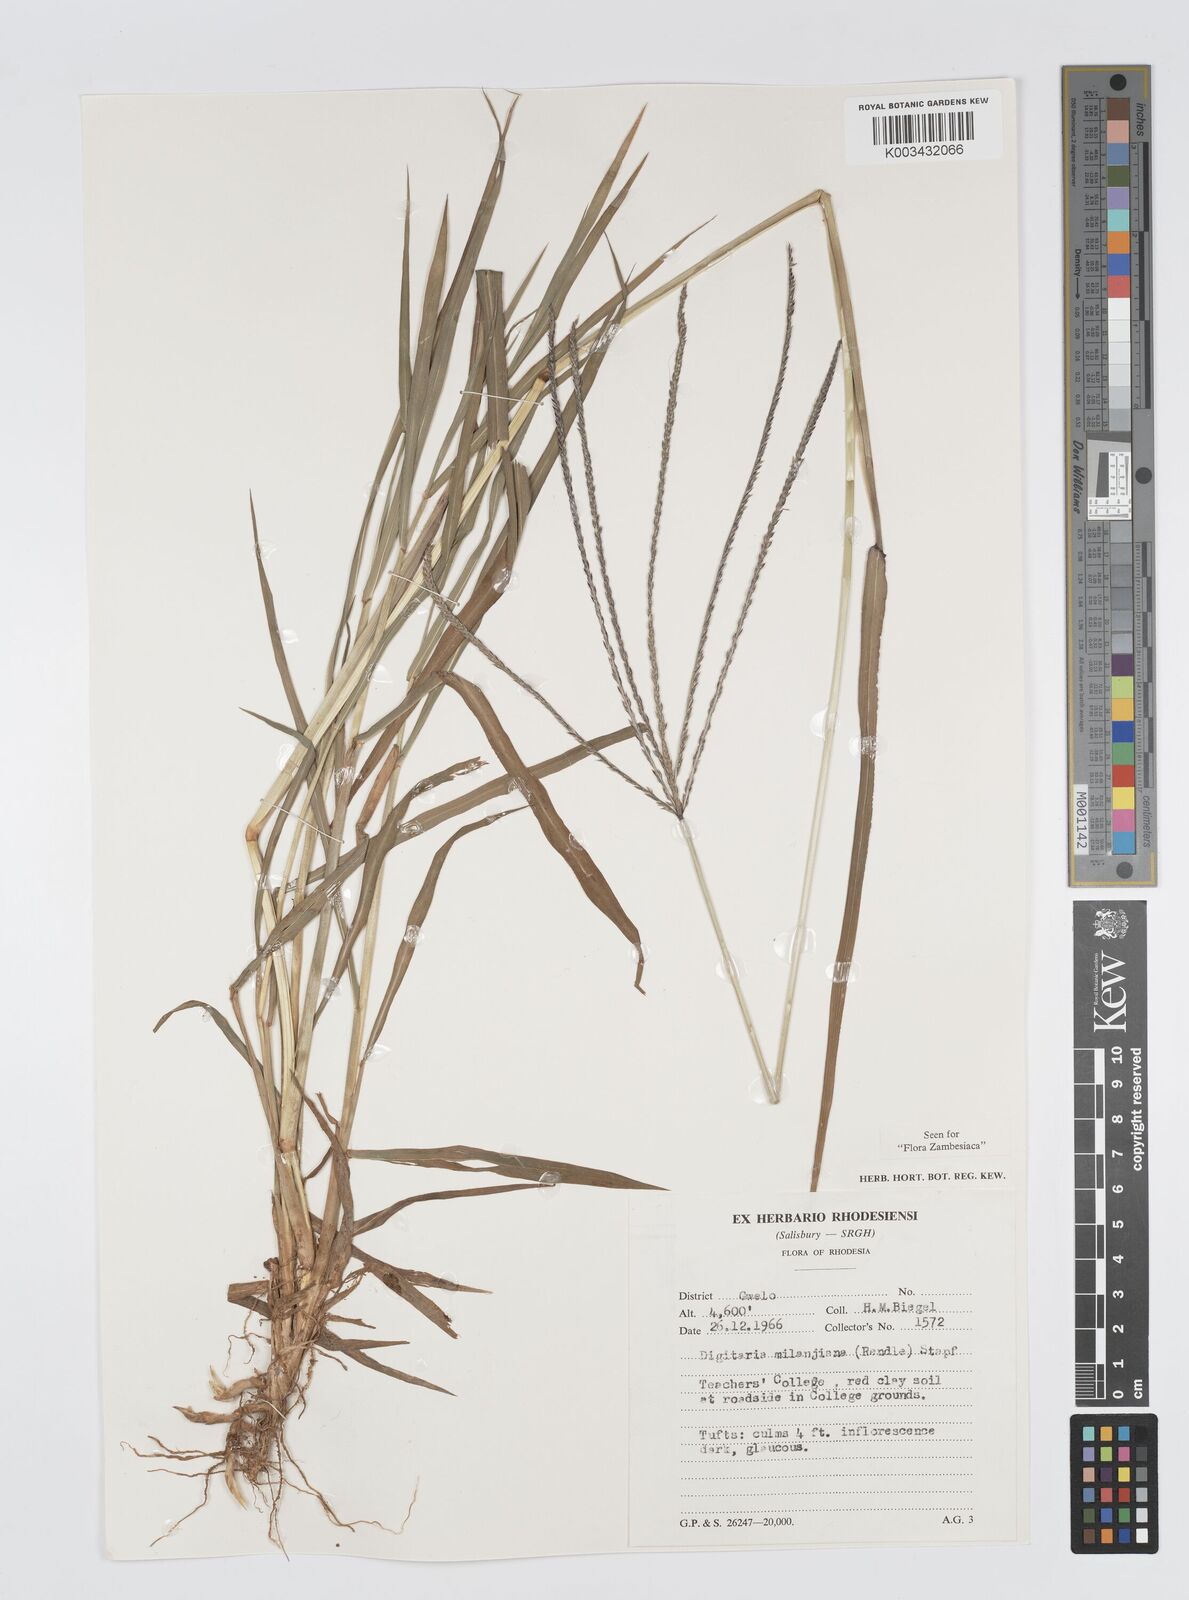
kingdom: Plantae
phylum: Tracheophyta
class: Liliopsida
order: Poales
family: Poaceae
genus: Digitaria
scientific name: Digitaria milanjiana
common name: Madagascar crabgrass
